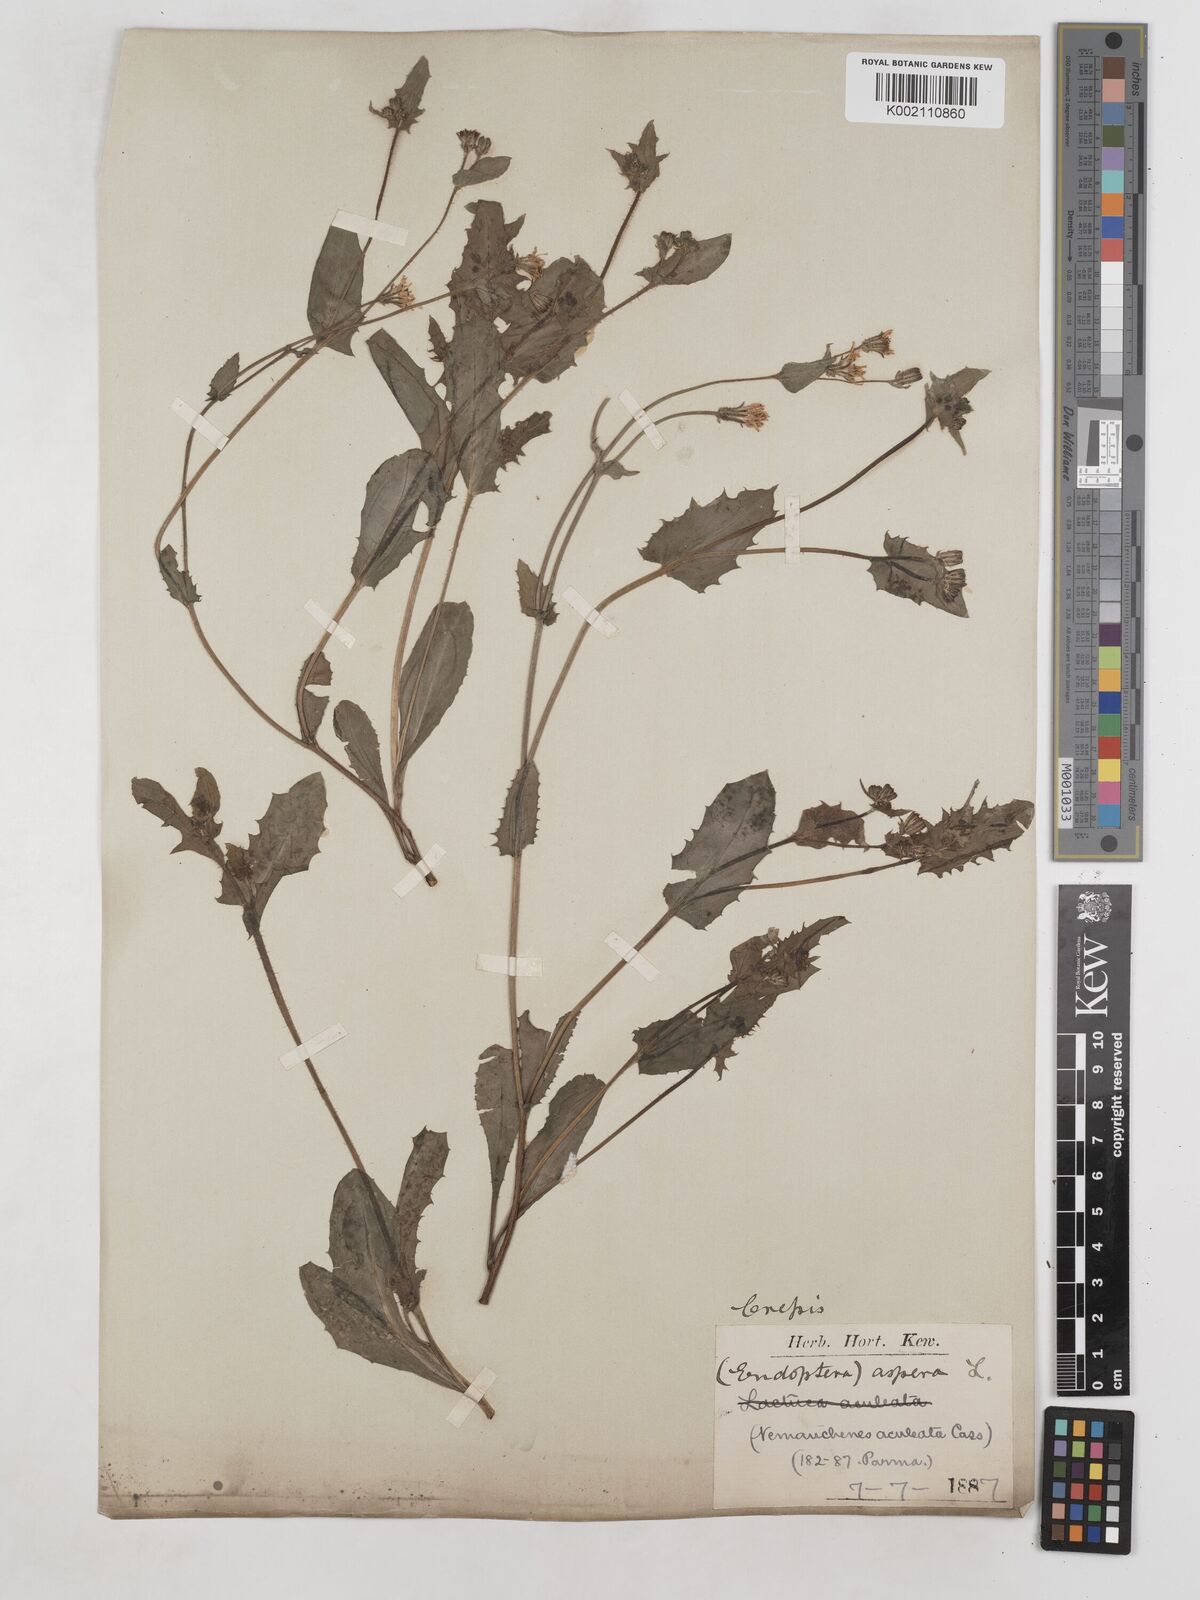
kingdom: Plantae
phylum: Tracheophyta
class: Magnoliopsida
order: Asterales
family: Asteraceae
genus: Crepis
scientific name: Crepis aspera
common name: Hawk's-beard
